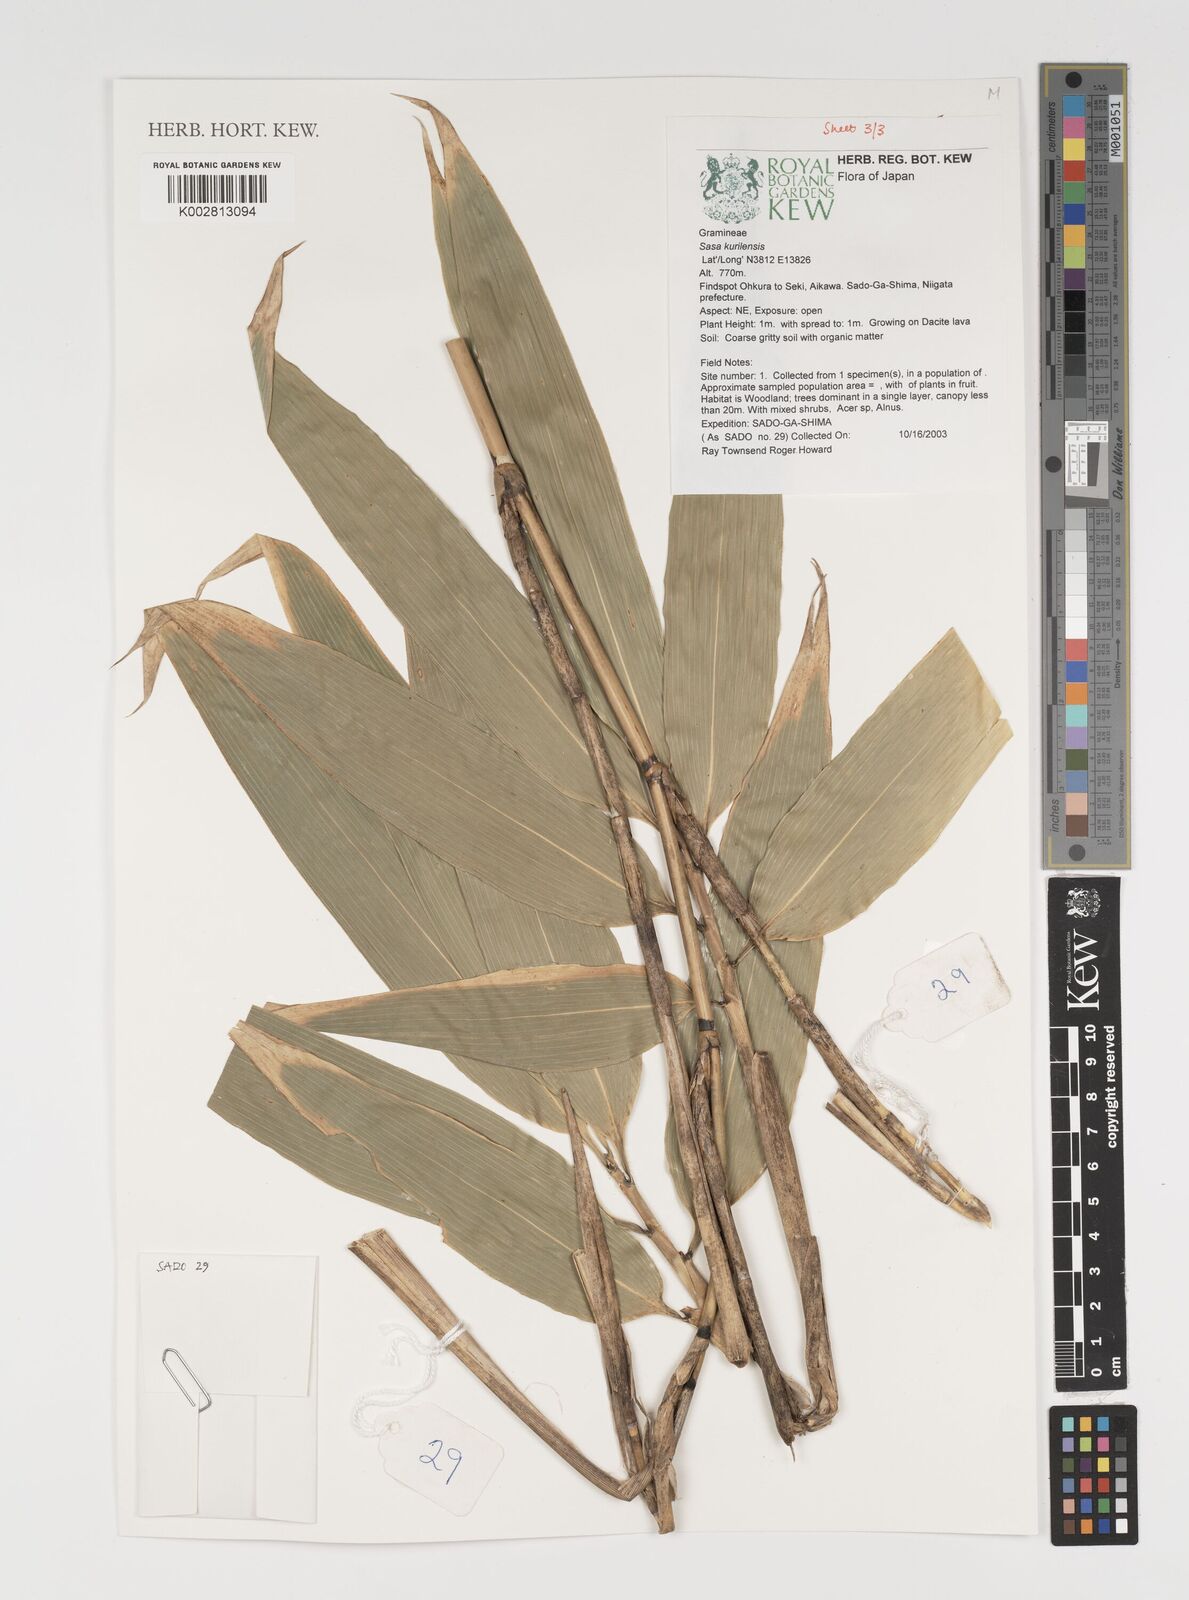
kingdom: Plantae
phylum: Tracheophyta
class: Liliopsida
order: Poales
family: Poaceae
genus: Sasa
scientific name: Sasa kurilensis
